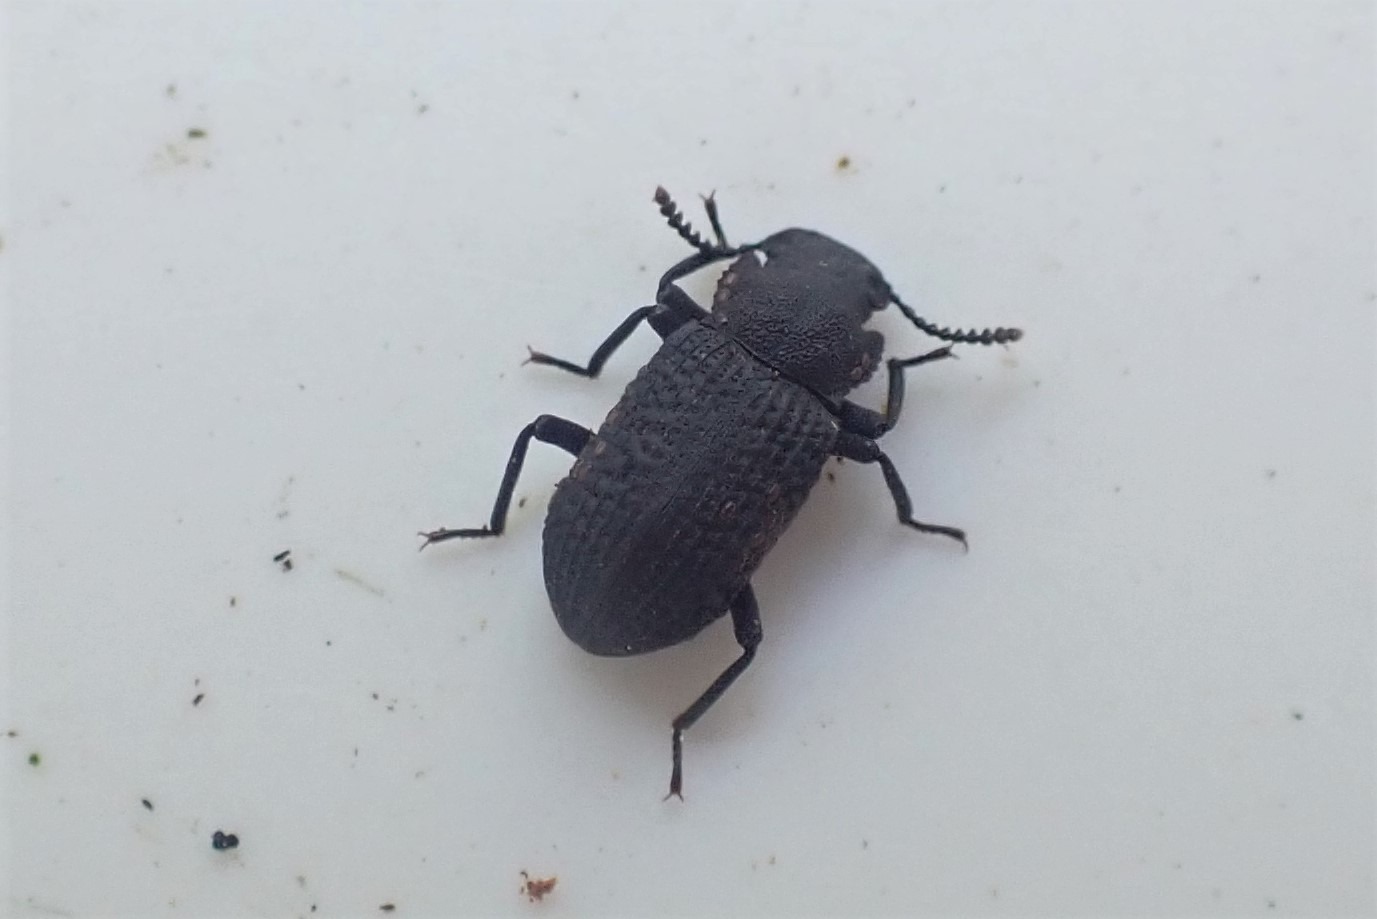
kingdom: Animalia
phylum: Arthropoda
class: Insecta
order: Coleoptera
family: Tenebrionidae
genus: Bolitophagus
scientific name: Bolitophagus reticulatus
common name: Netskyggebille
